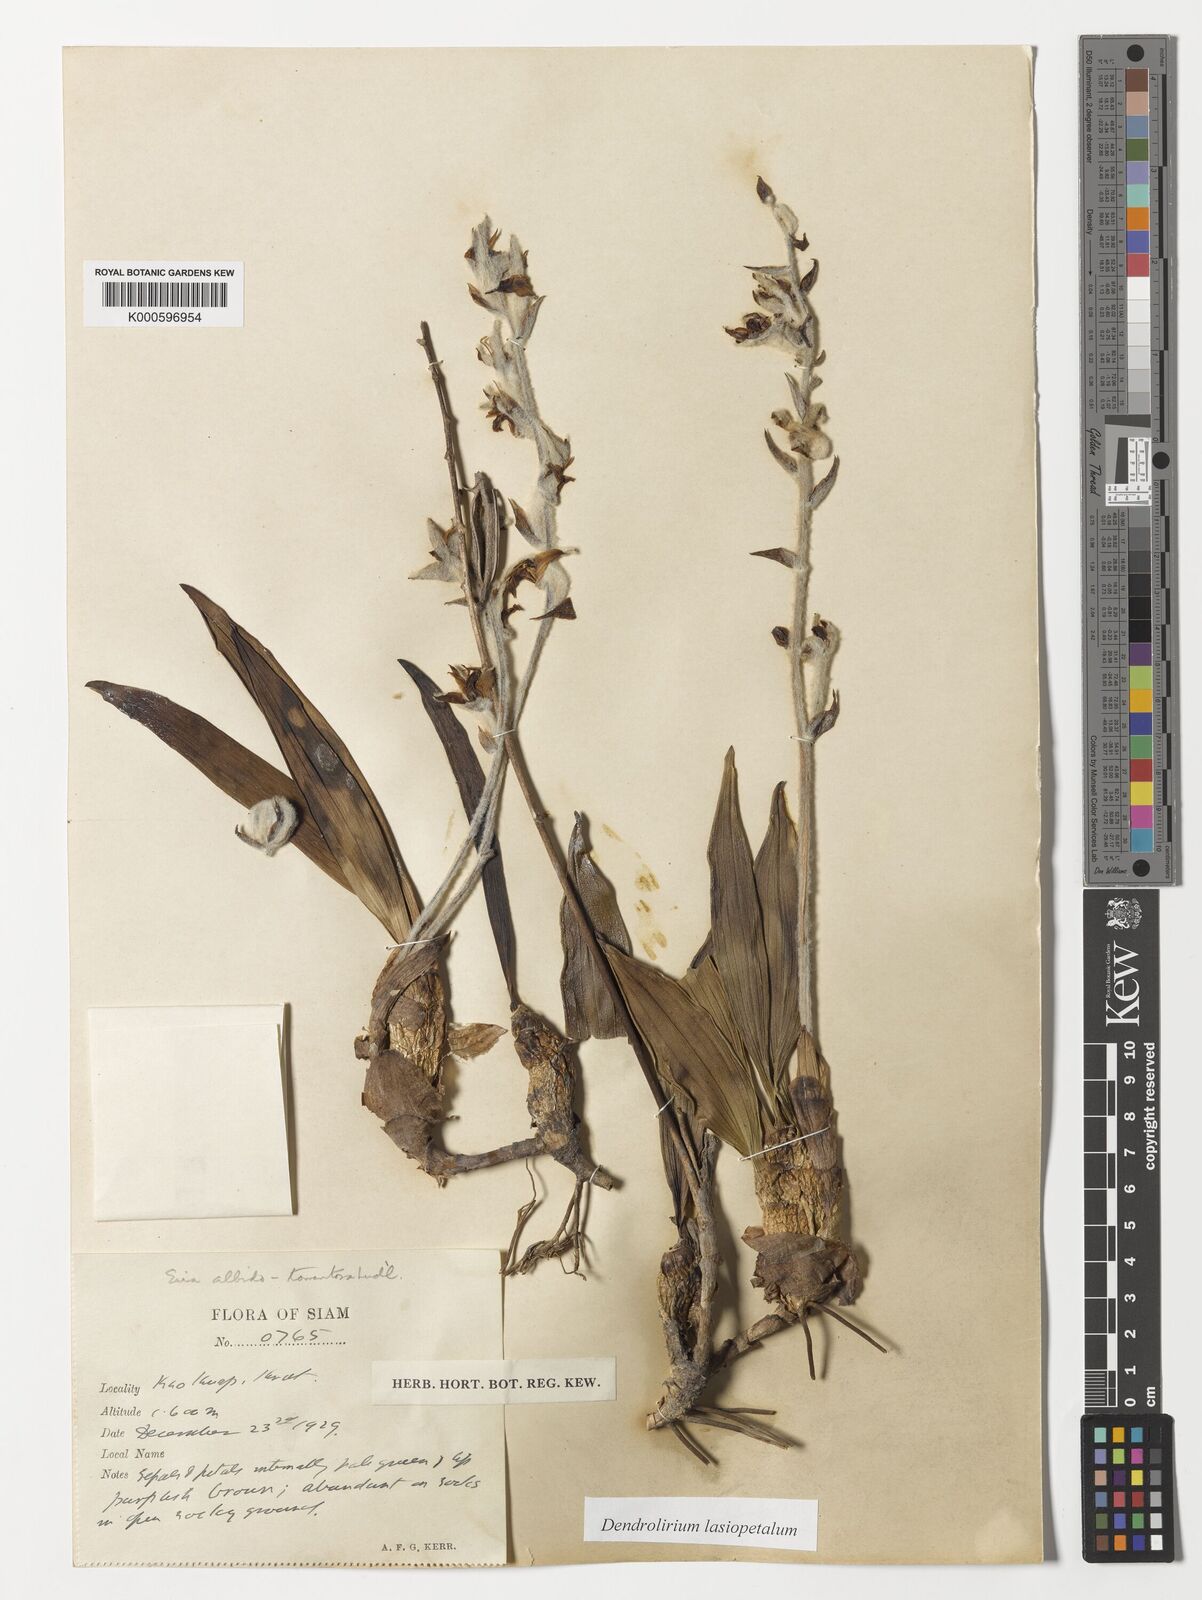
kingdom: Plantae
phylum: Tracheophyta
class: Liliopsida
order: Asparagales
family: Orchidaceae
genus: Dendrolirium
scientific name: Dendrolirium lasiopetalum
